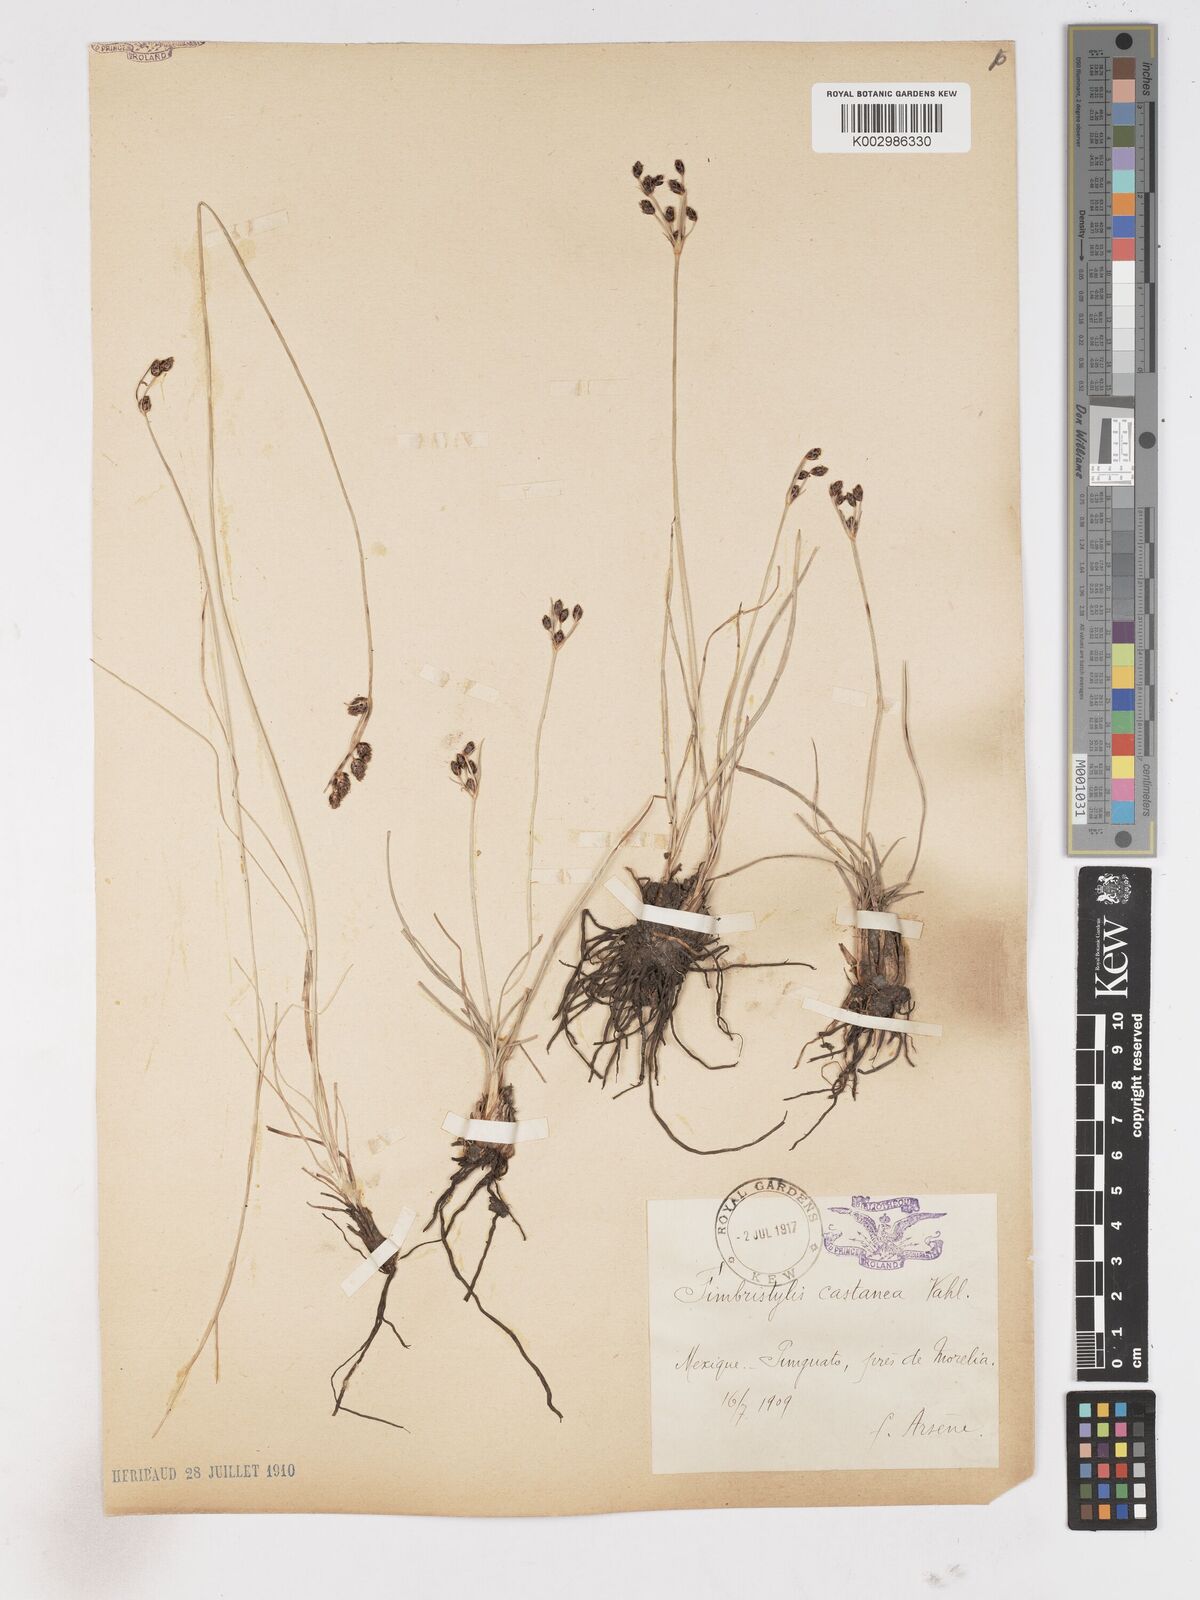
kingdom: Plantae
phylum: Tracheophyta
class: Liliopsida
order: Poales
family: Cyperaceae
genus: Fimbristylis
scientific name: Fimbristylis spadicea
